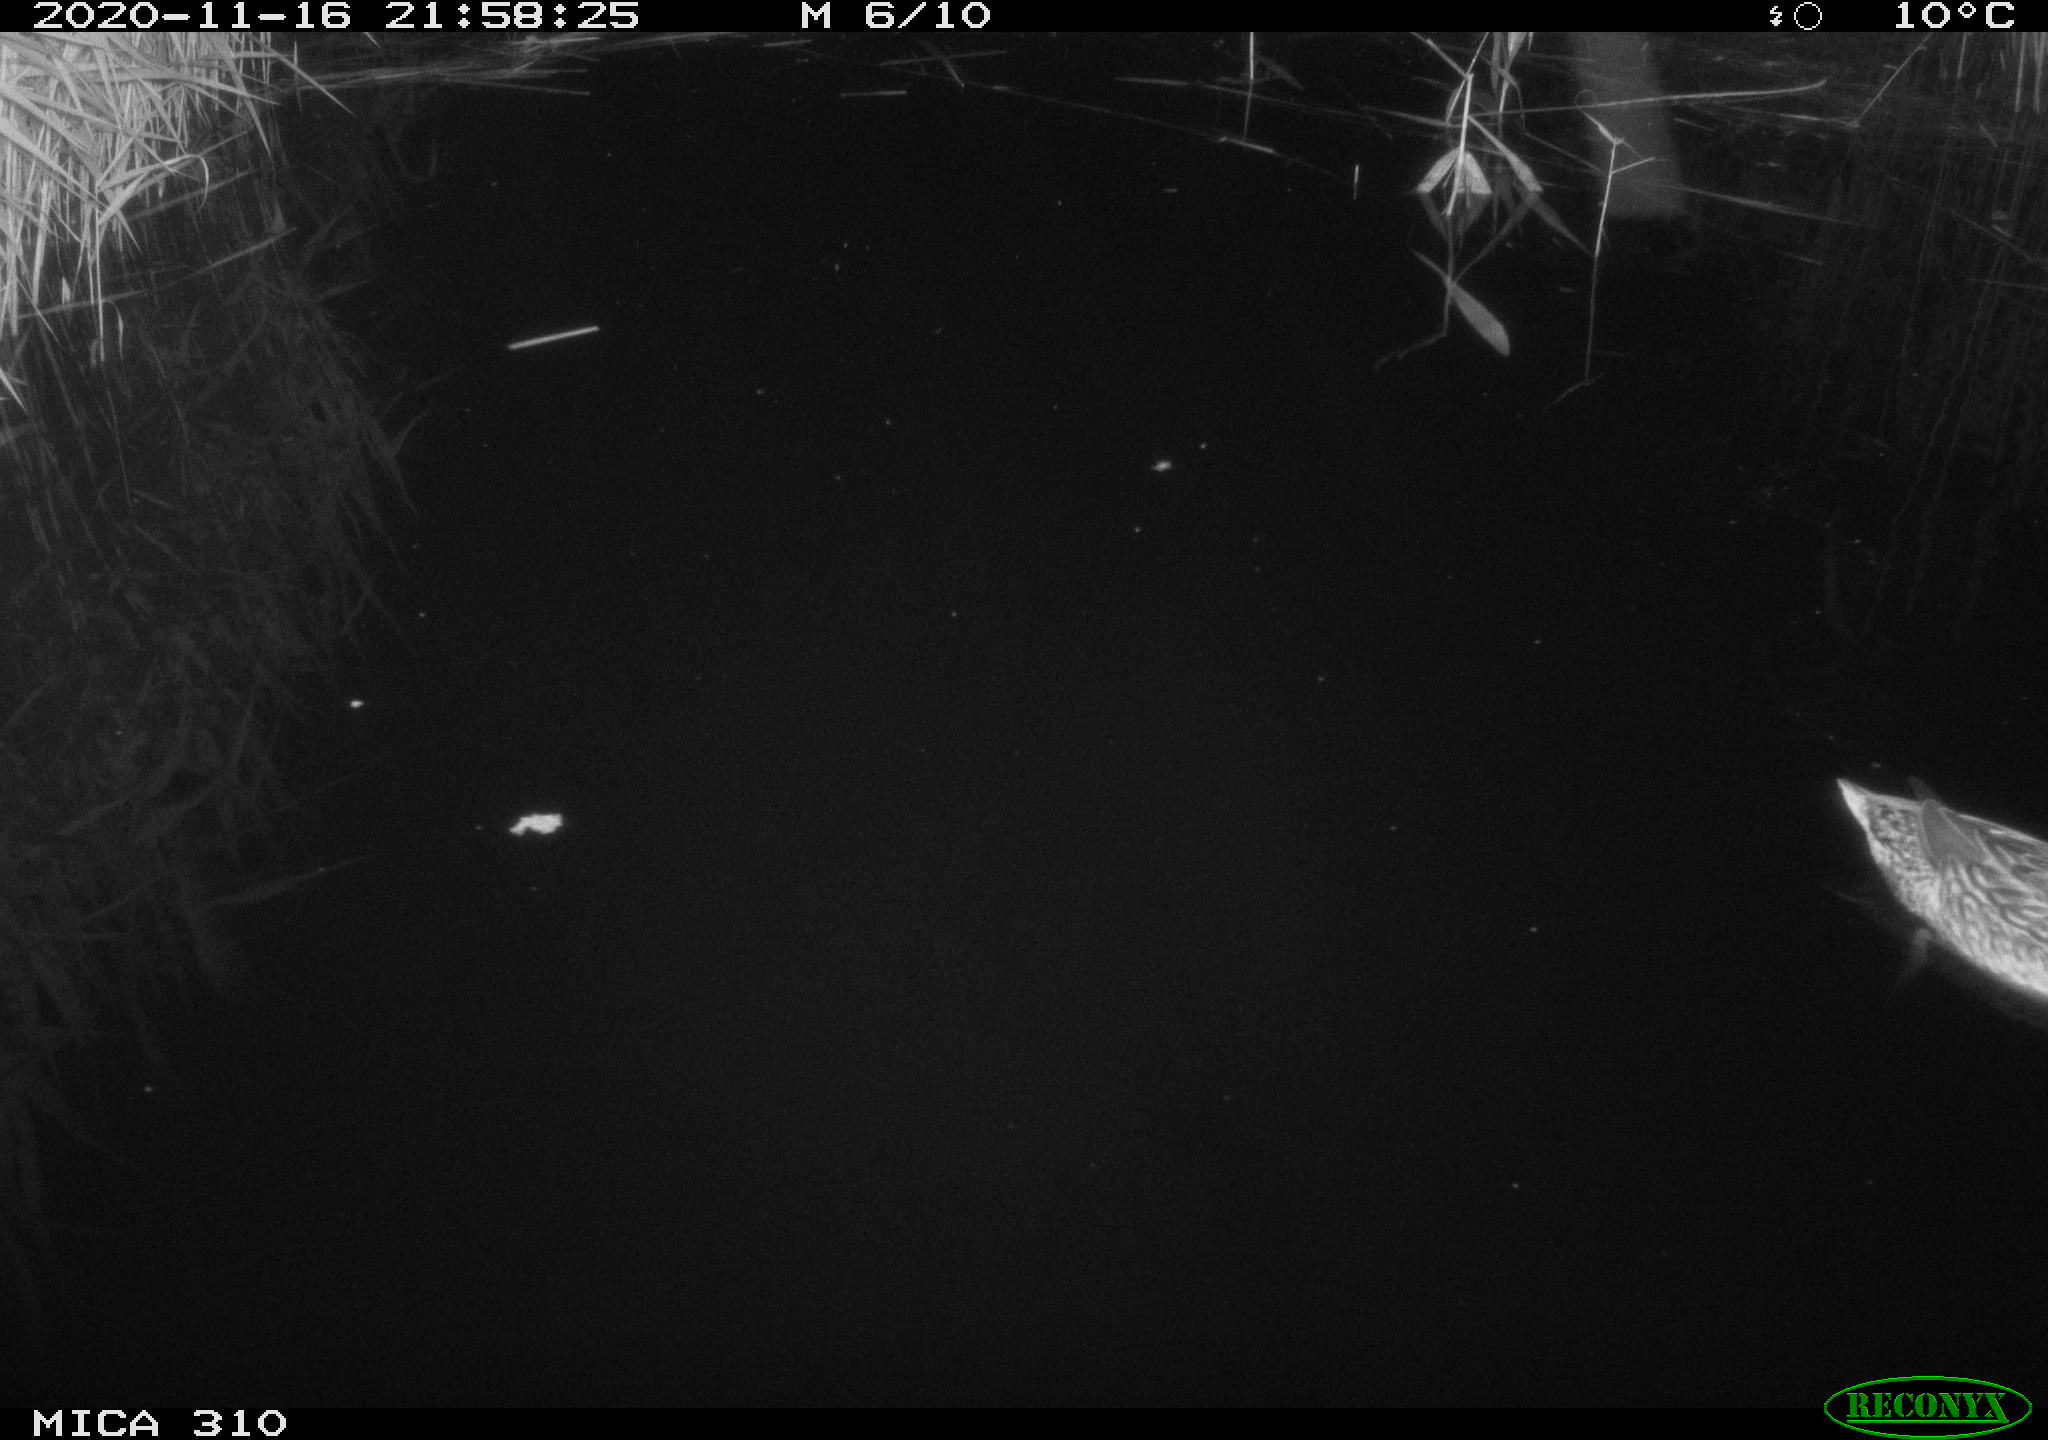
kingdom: Animalia
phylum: Chordata
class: Aves
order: Anseriformes
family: Anatidae
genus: Anas
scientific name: Anas platyrhynchos
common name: Mallard
